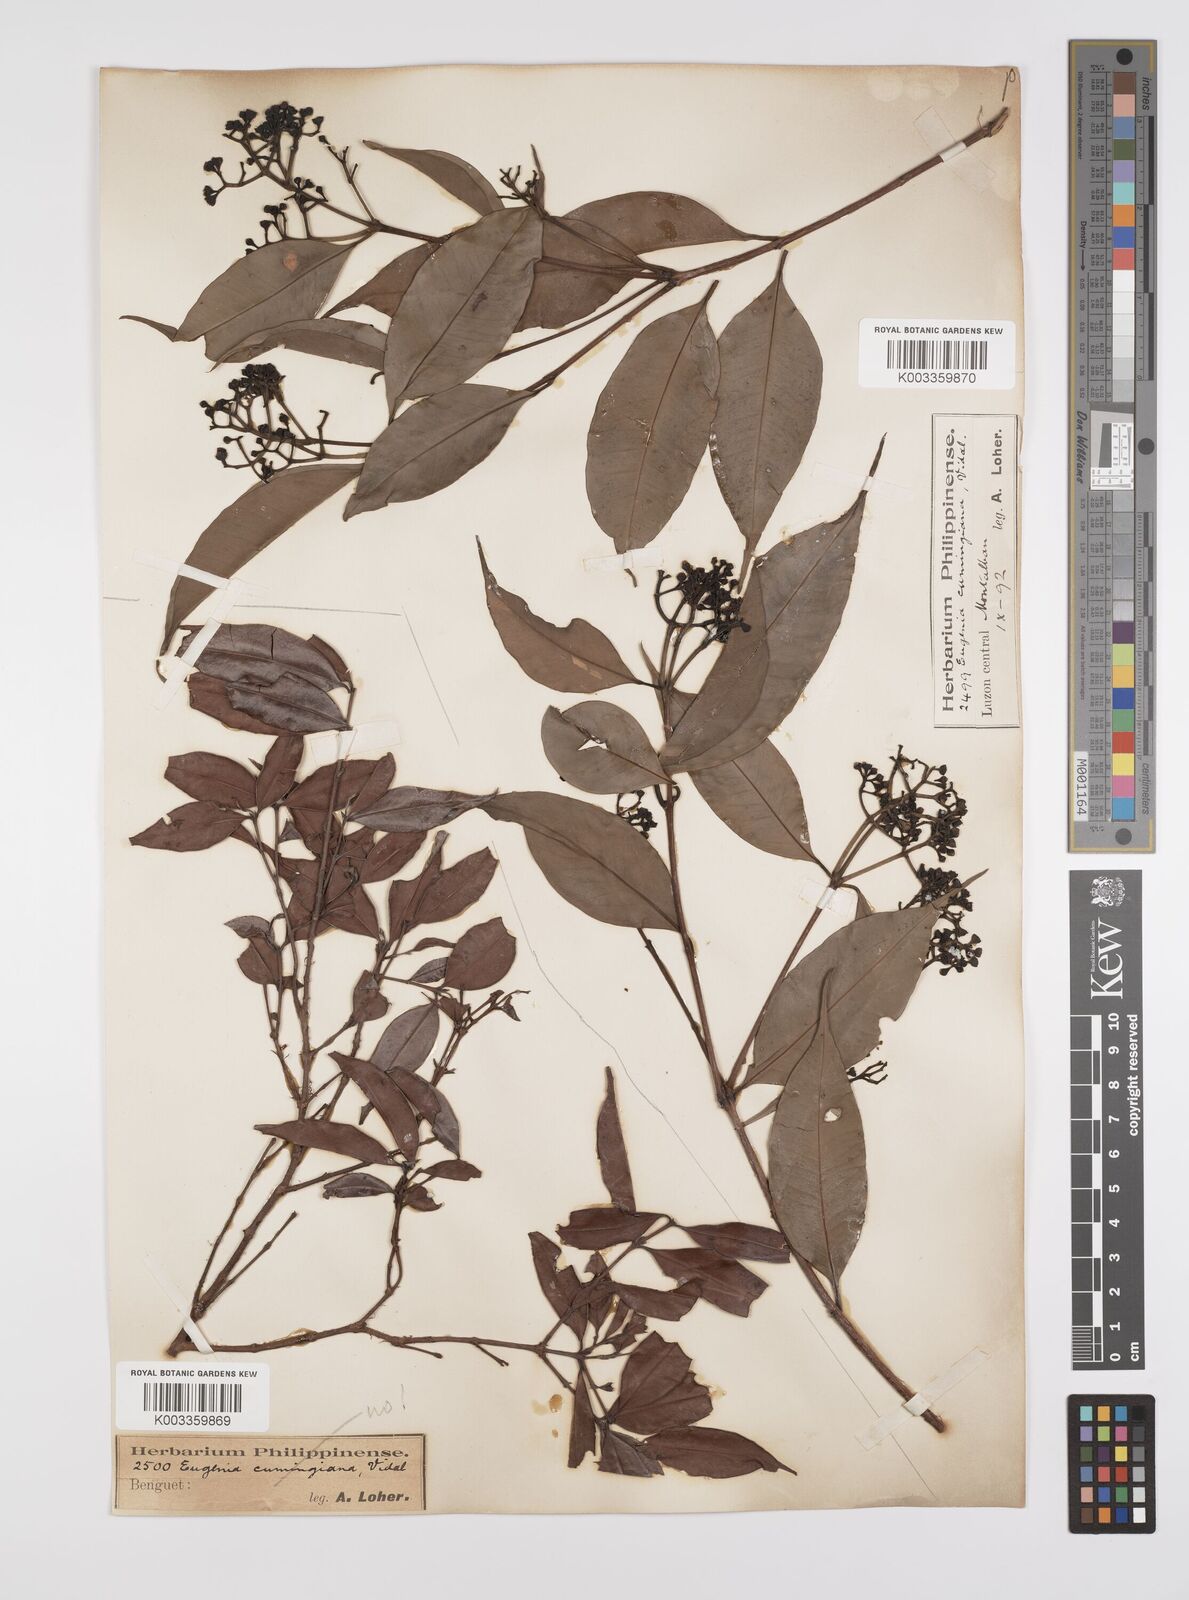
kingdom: Plantae
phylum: Tracheophyta
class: Magnoliopsida
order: Myrtales
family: Myrtaceae
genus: Syzygium
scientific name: Syzygium acuminatissimum
